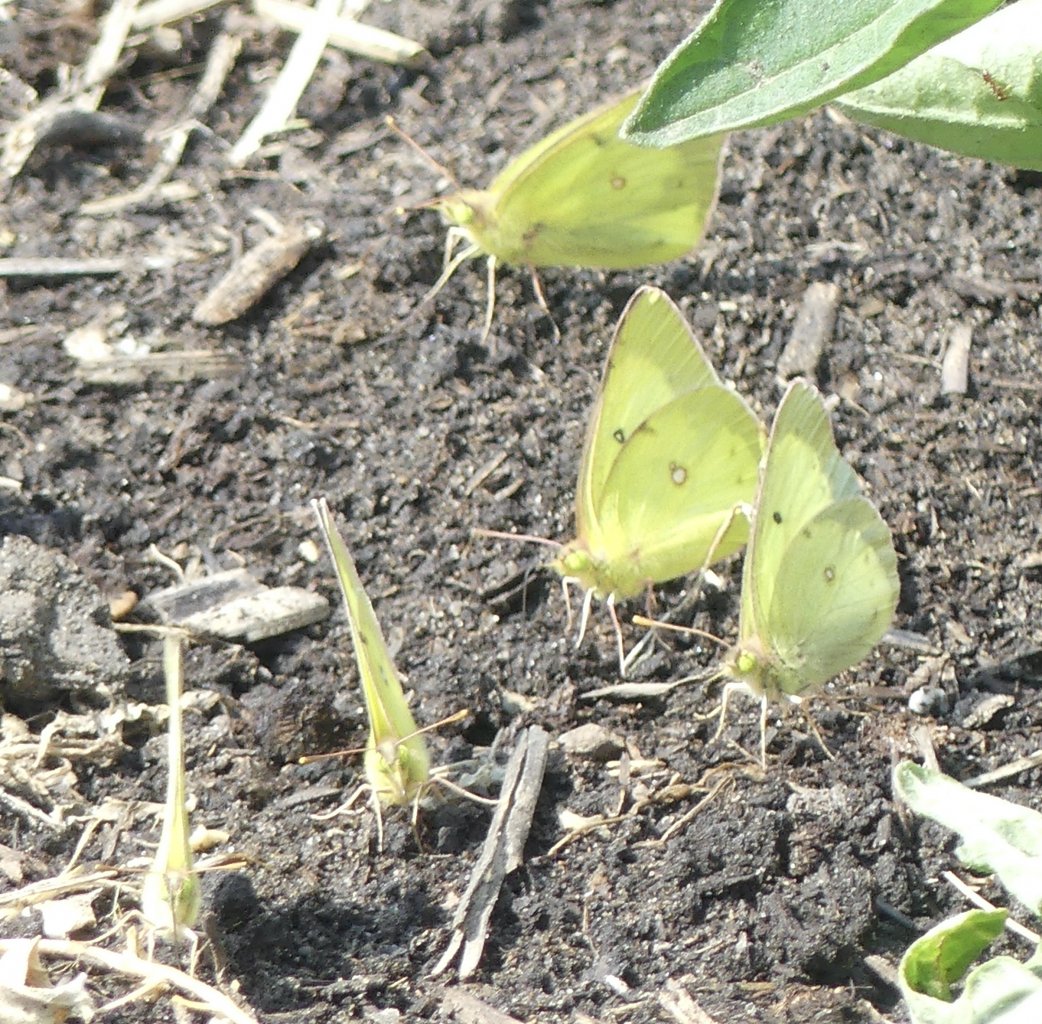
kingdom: Animalia
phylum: Arthropoda
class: Insecta
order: Lepidoptera
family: Pieridae
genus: Colias
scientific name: Colias philodice
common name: Clouded Sulphur
